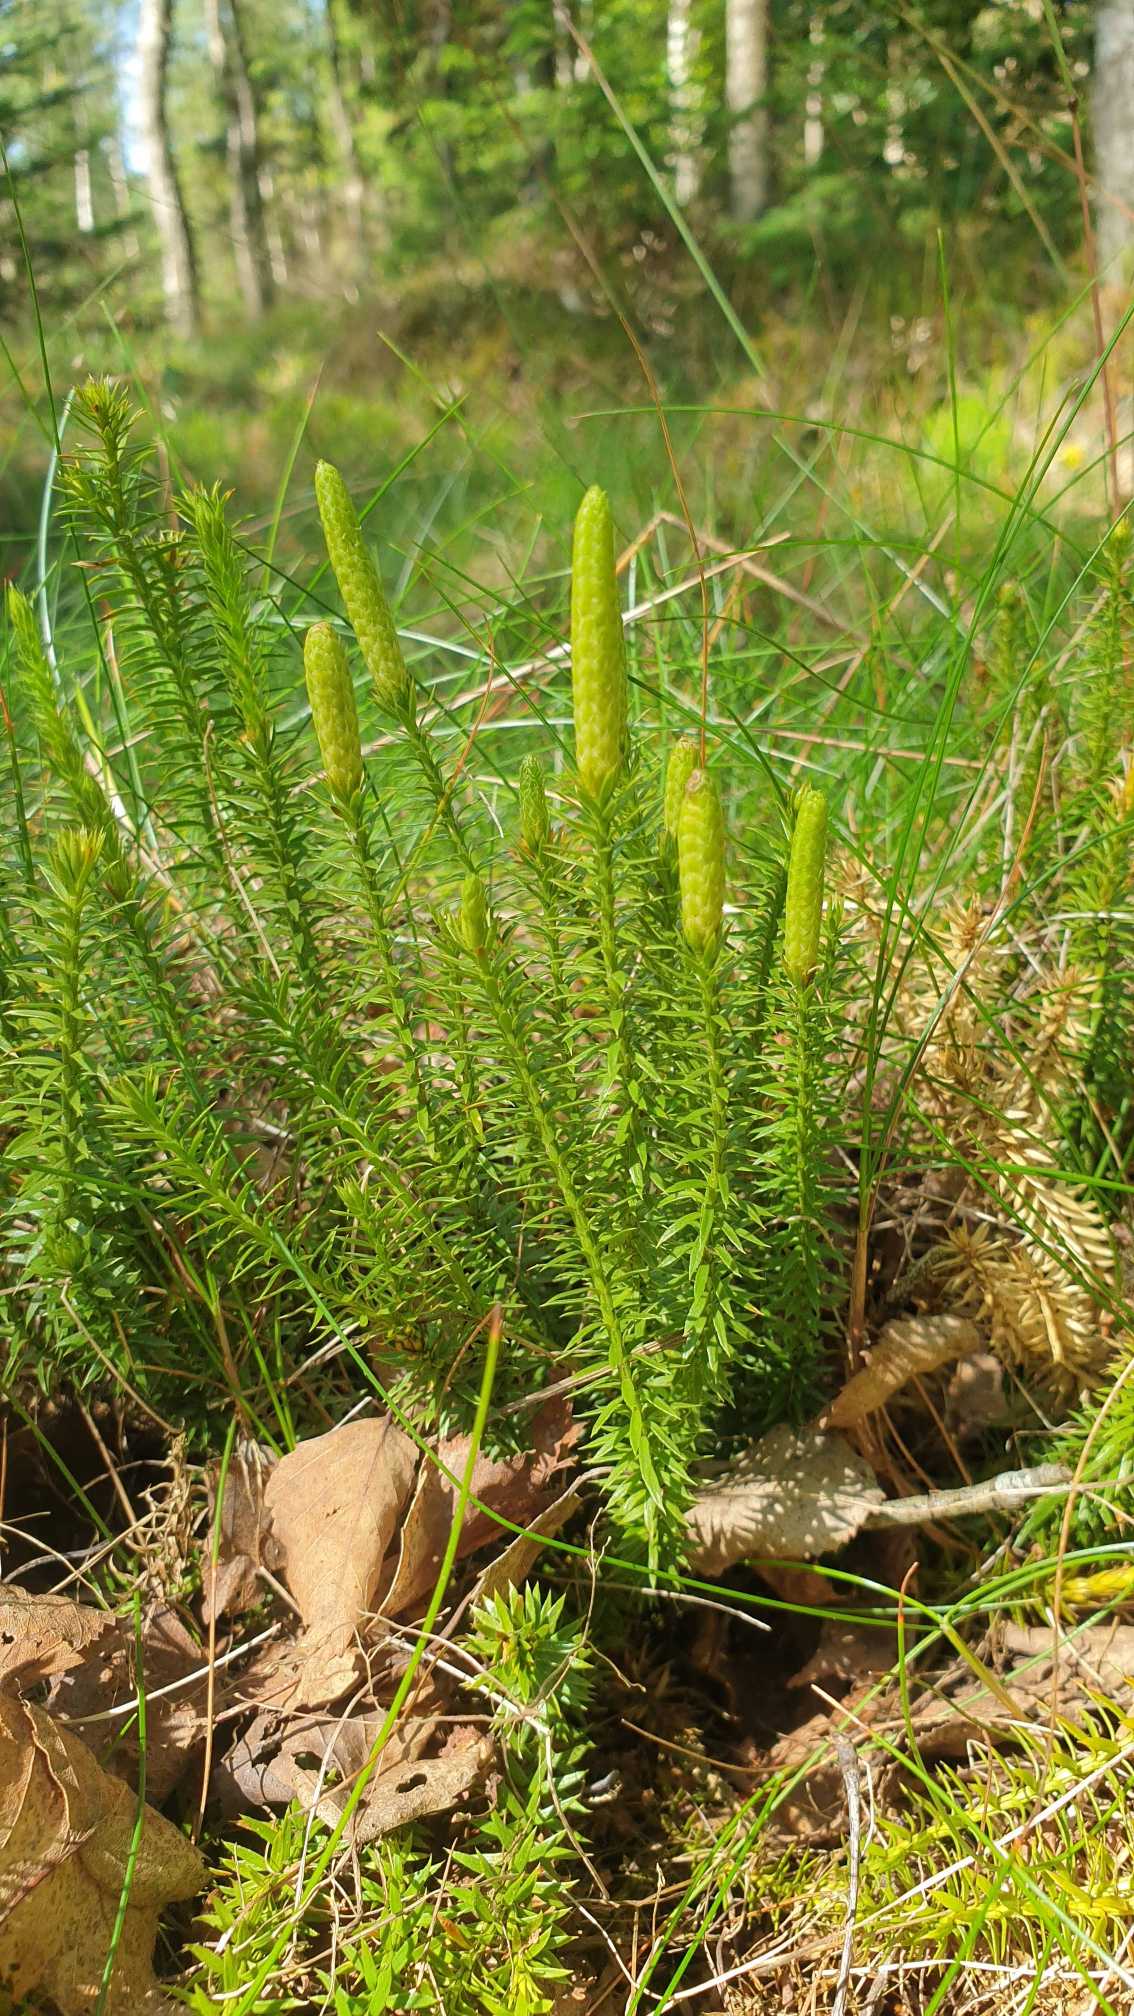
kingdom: Plantae
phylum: Tracheophyta
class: Lycopodiopsida
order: Lycopodiales
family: Lycopodiaceae
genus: Spinulum
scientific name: Spinulum annotinum
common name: Femradet ulvefod
